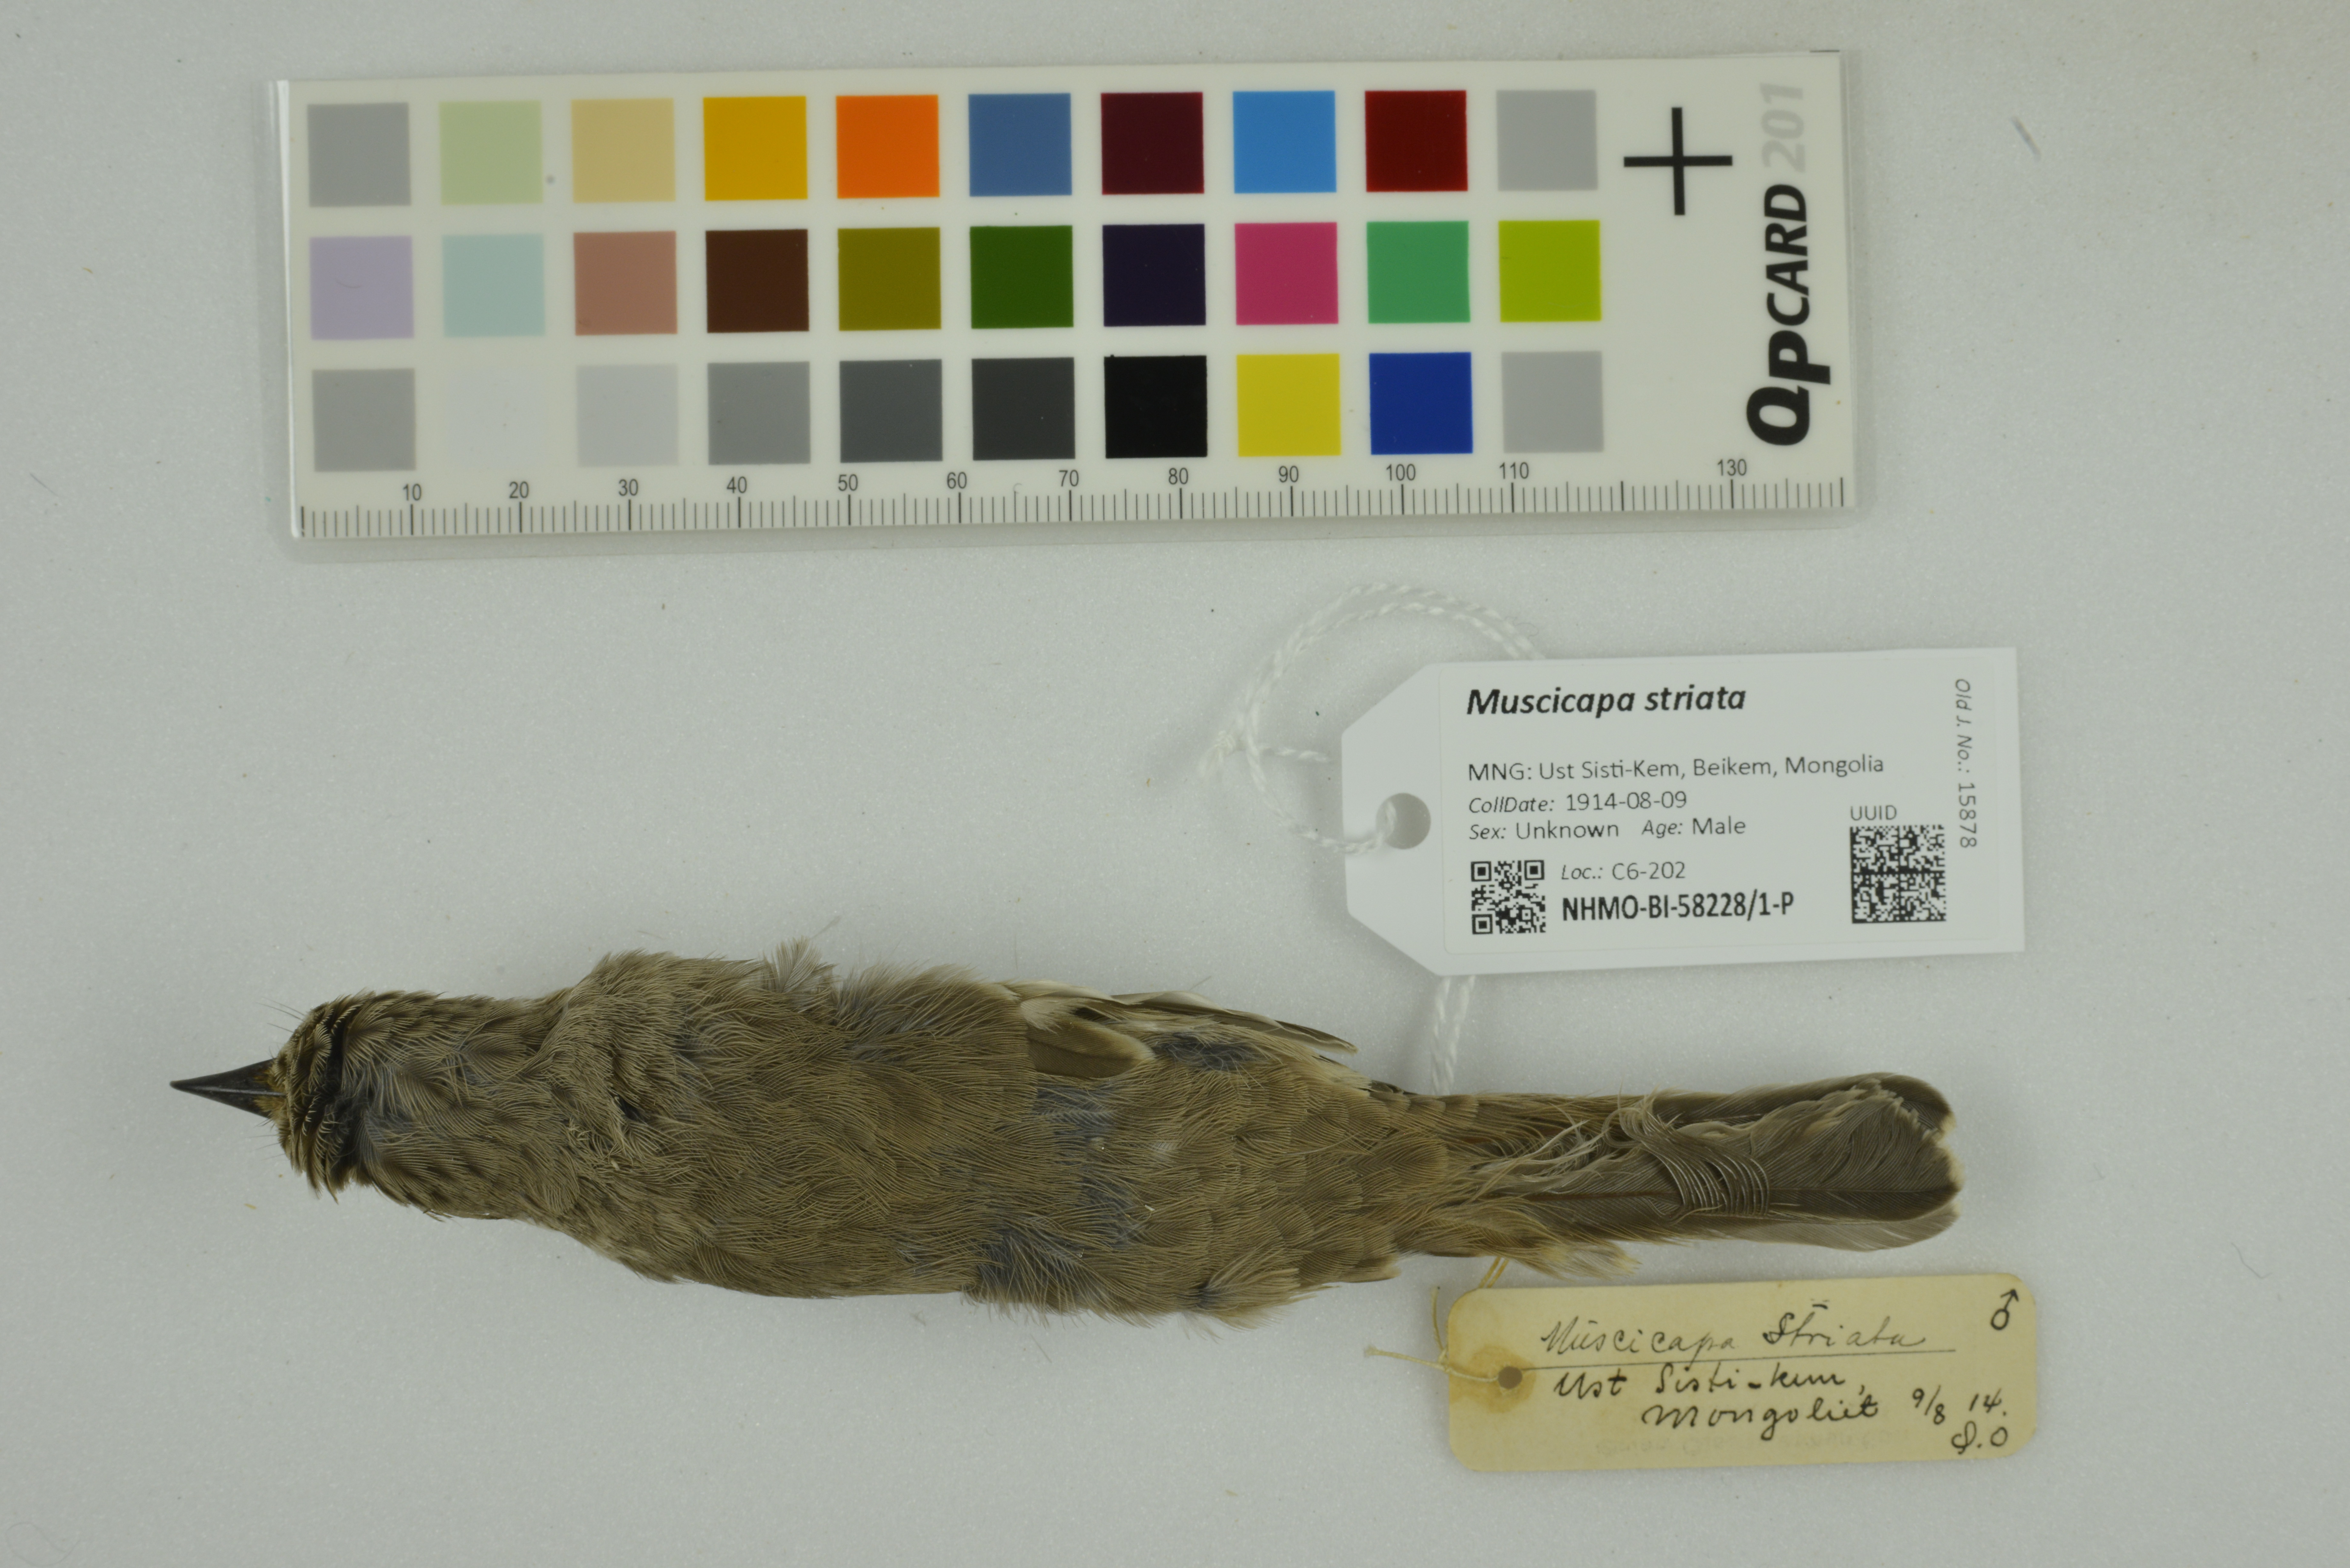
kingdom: Animalia
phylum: Chordata
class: Aves
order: Passeriformes
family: Muscicapidae
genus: Muscicapa
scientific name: Muscicapa striata
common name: Spotted flycatcher
